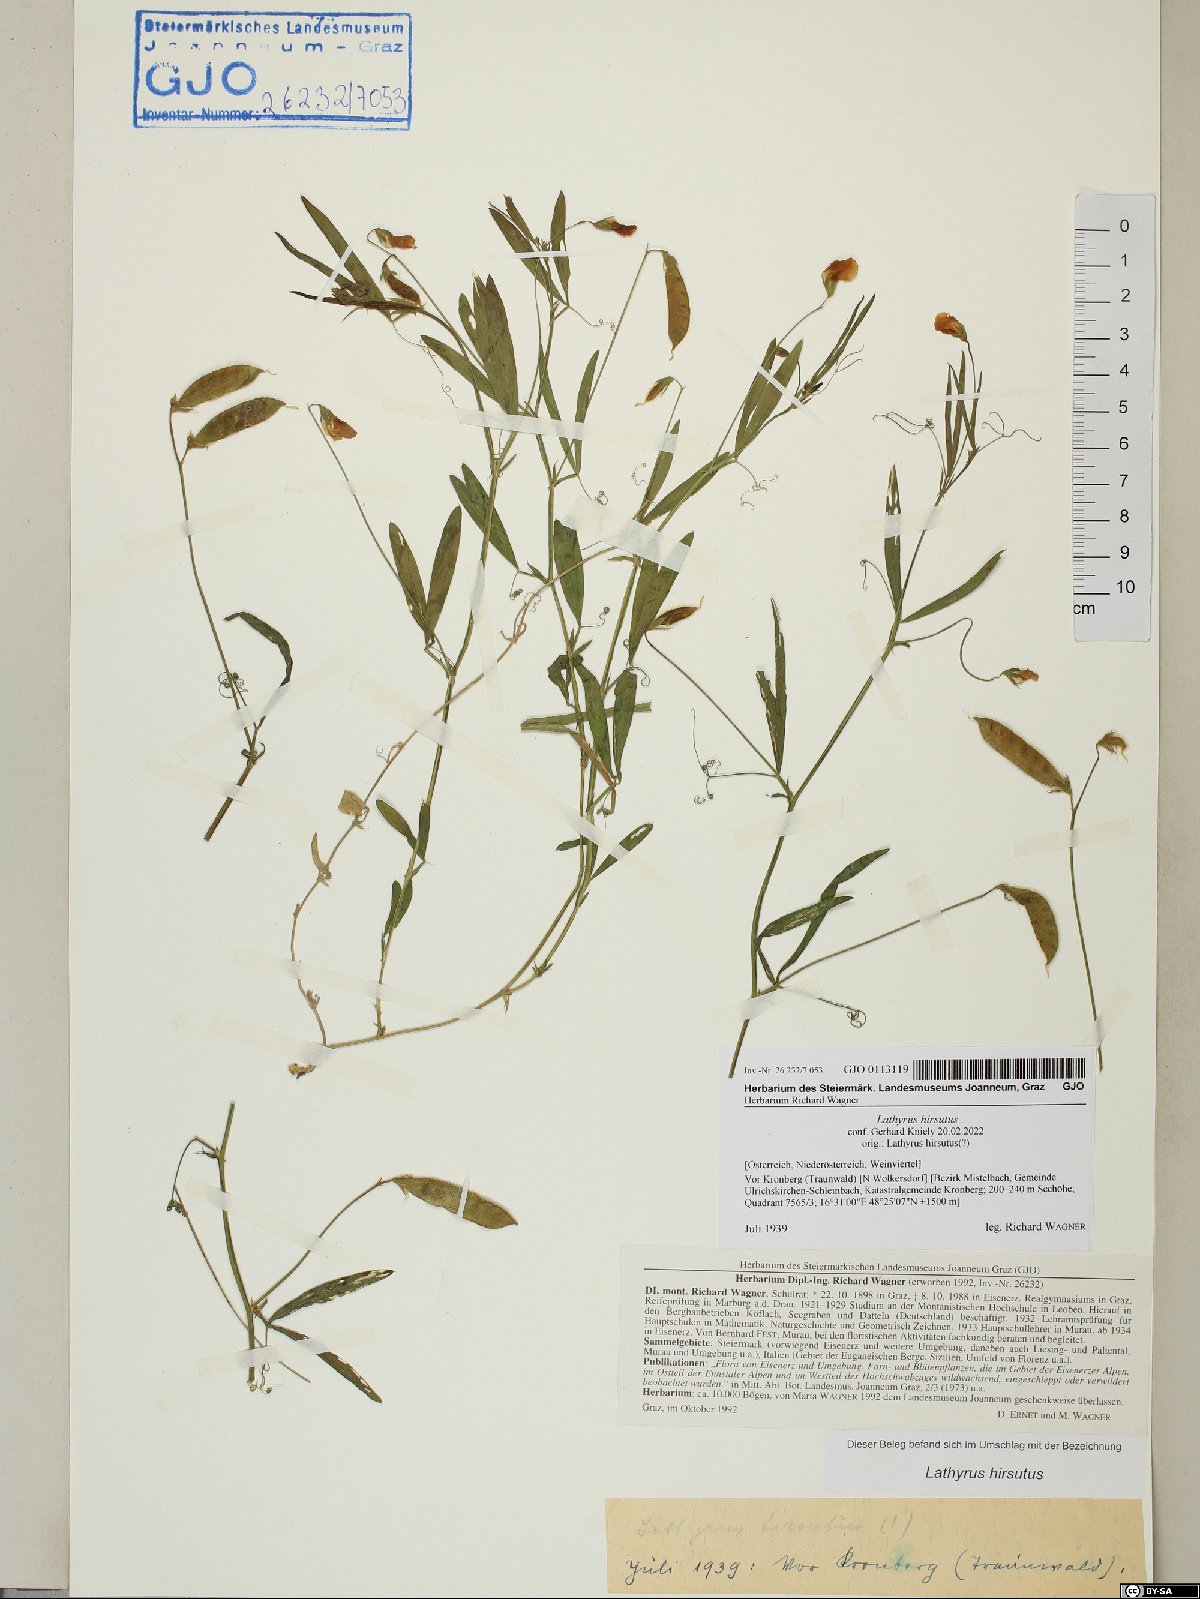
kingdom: Plantae
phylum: Tracheophyta
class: Magnoliopsida
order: Fabales
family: Fabaceae
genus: Lathyrus
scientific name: Lathyrus hirsutus
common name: Hairy vetchling
